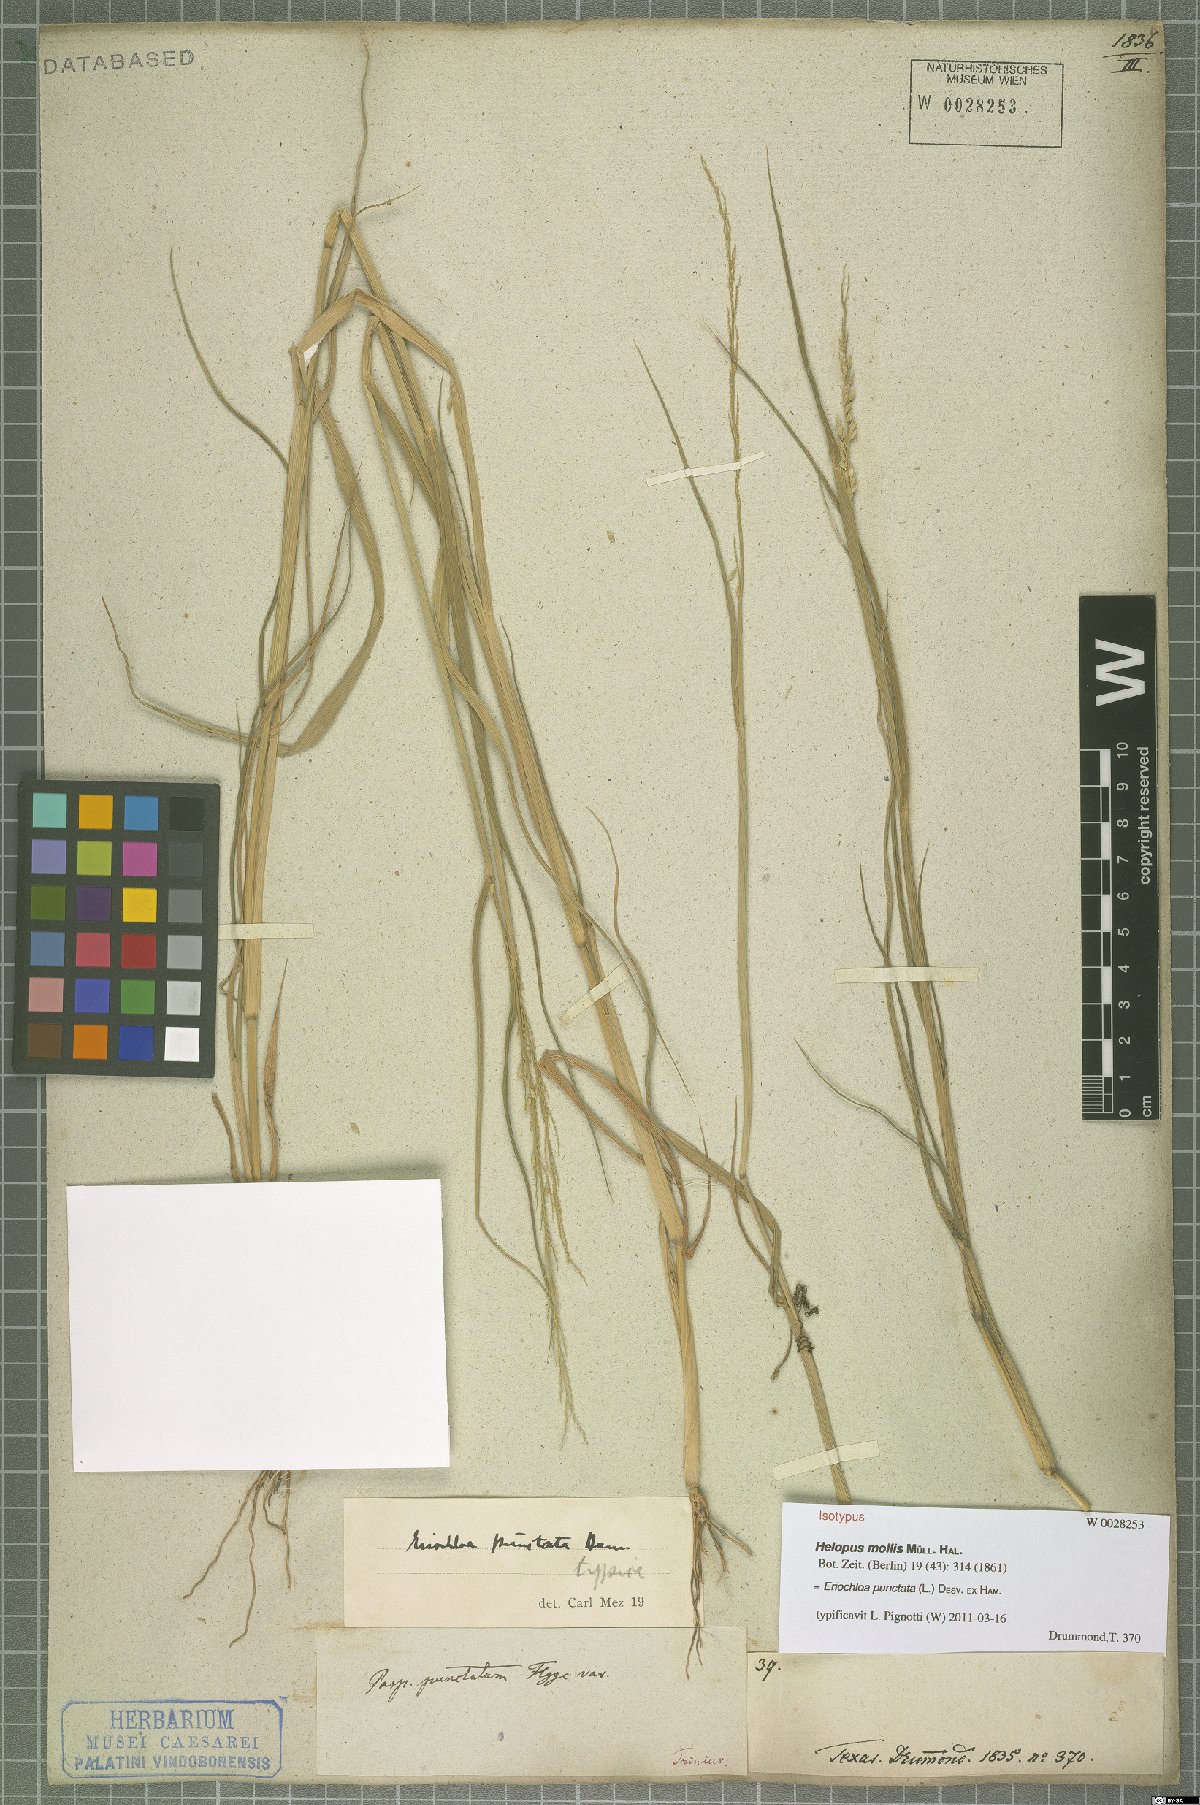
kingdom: Plantae
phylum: Tracheophyta
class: Liliopsida
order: Poales
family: Poaceae
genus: Eriochloa
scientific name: Eriochloa punctata
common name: Louisiana cupgrass
